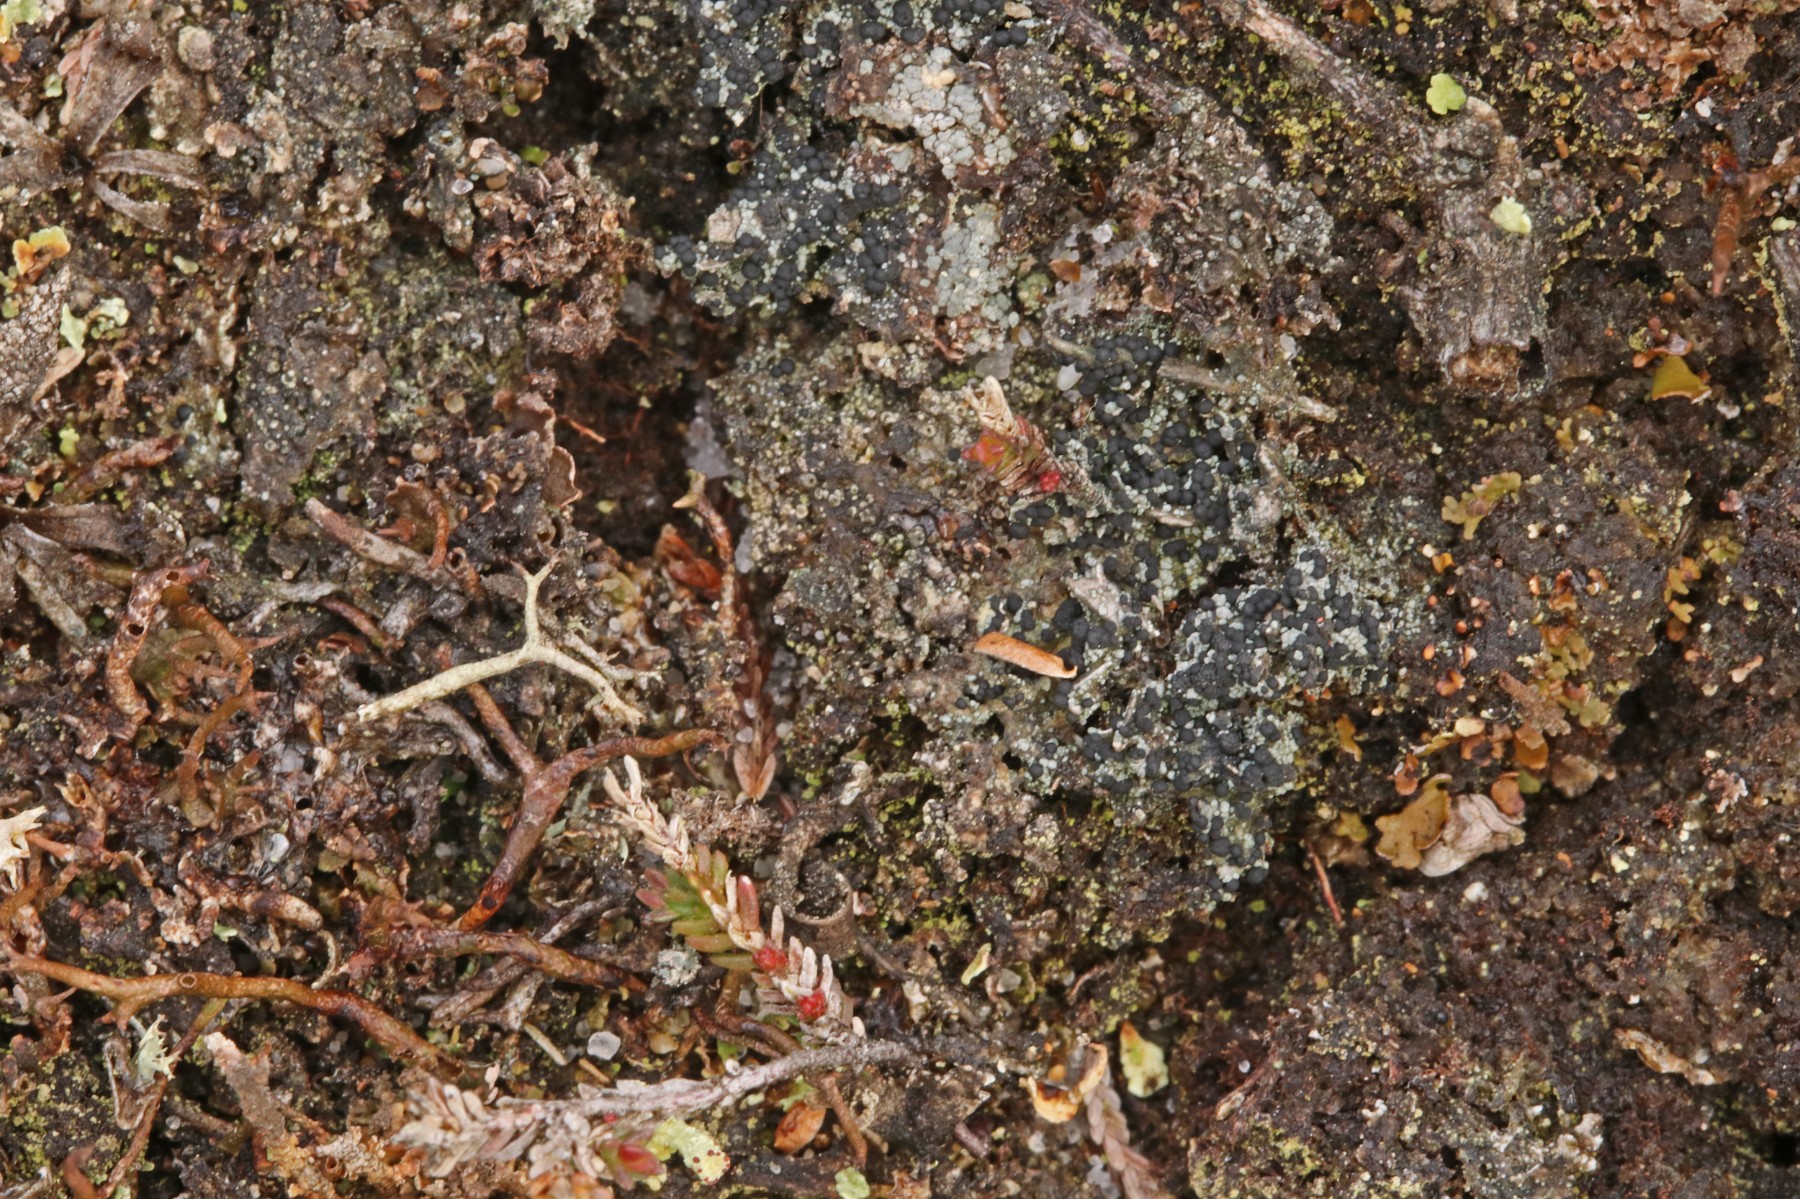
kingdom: Fungi
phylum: Ascomycota
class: Lecanoromycetes
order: Lecanorales
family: Byssolomataceae
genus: Micarea
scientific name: Micarea lignaria
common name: tørve-knaplav
